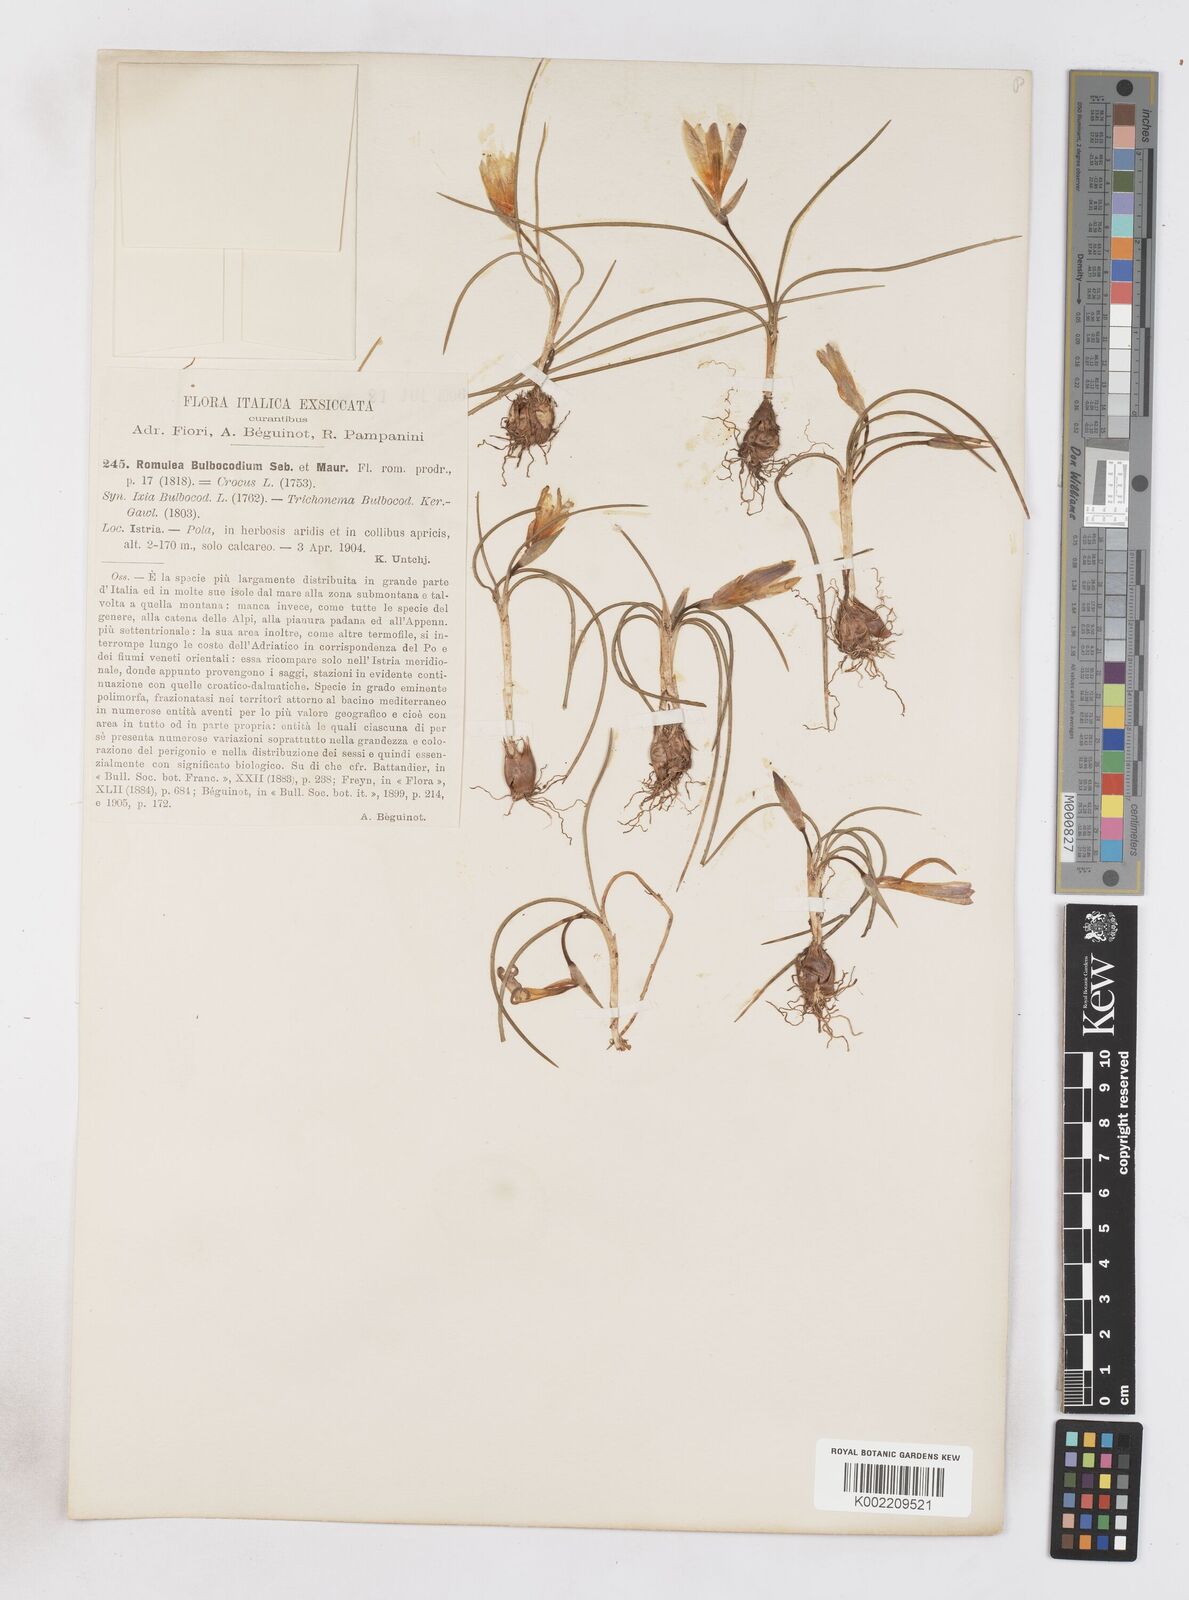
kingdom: Plantae
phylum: Tracheophyta
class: Liliopsida
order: Asparagales
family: Iridaceae
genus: Romulea
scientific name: Romulea bulbocodium
